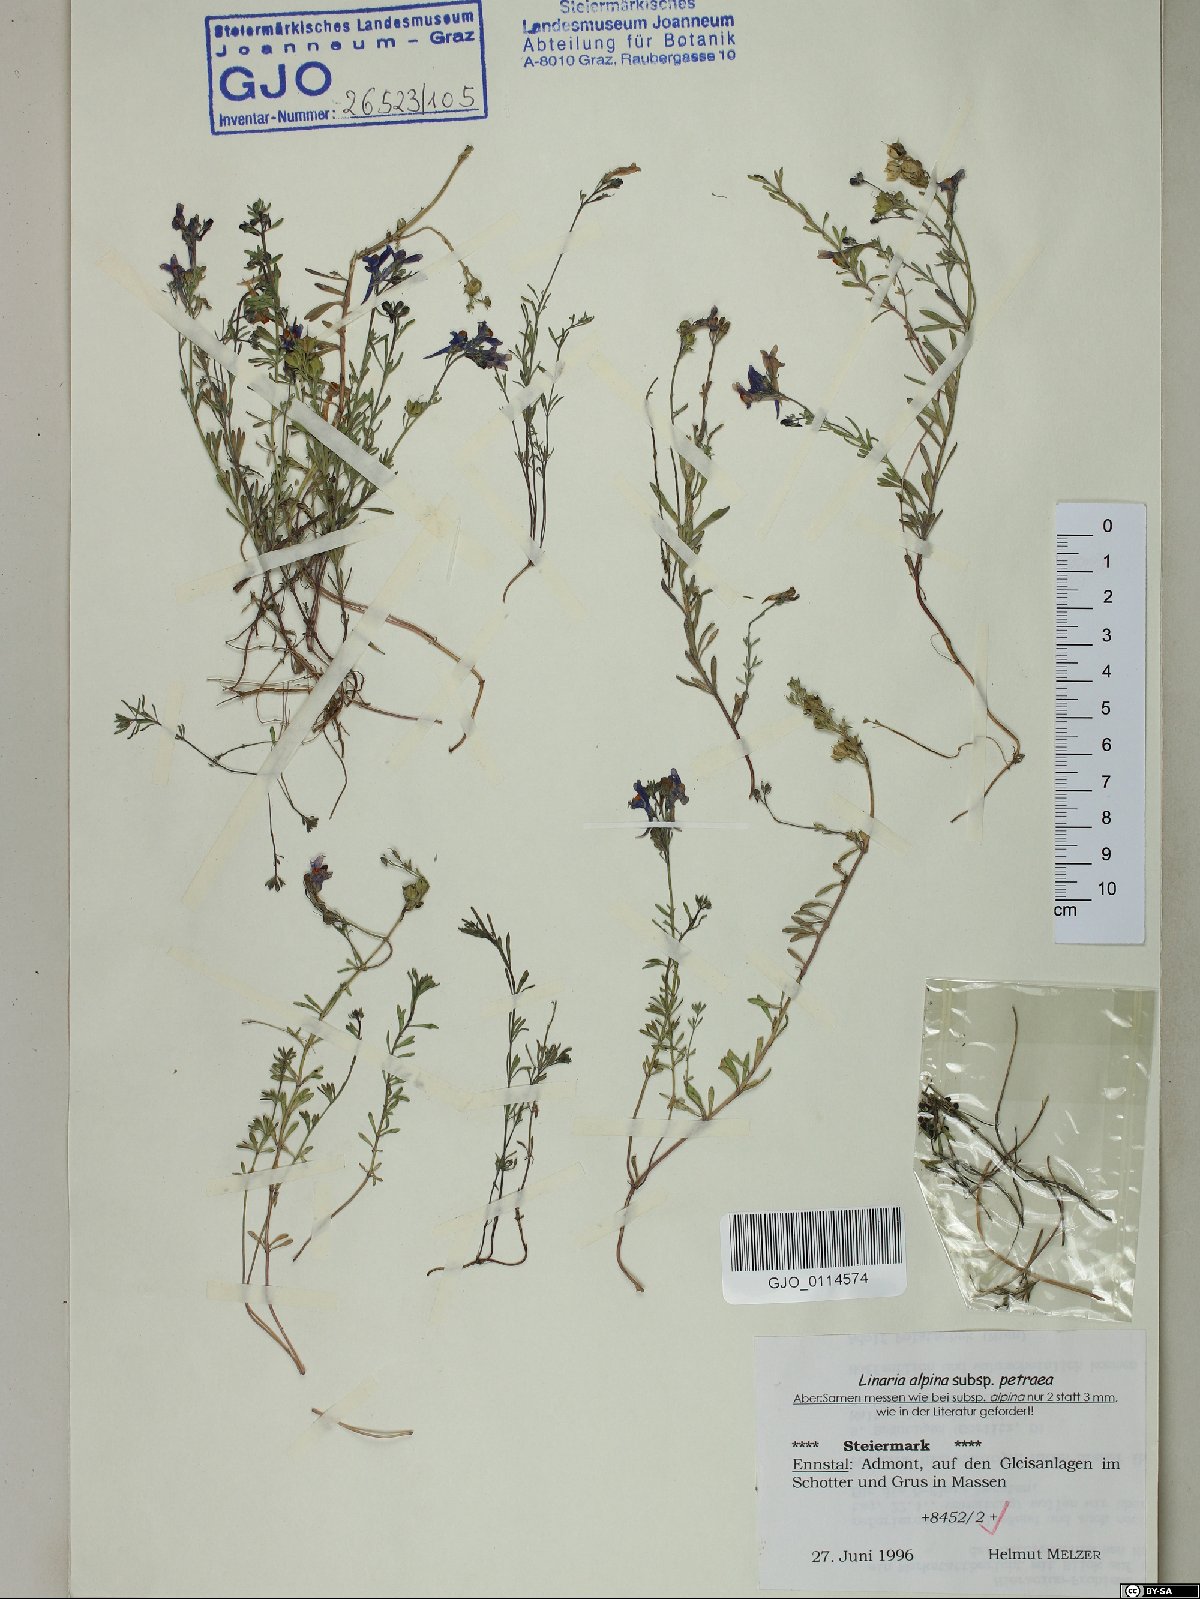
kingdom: Plantae
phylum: Tracheophyta
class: Magnoliopsida
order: Lamiales
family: Plantaginaceae
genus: Linaria
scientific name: Linaria alpina
